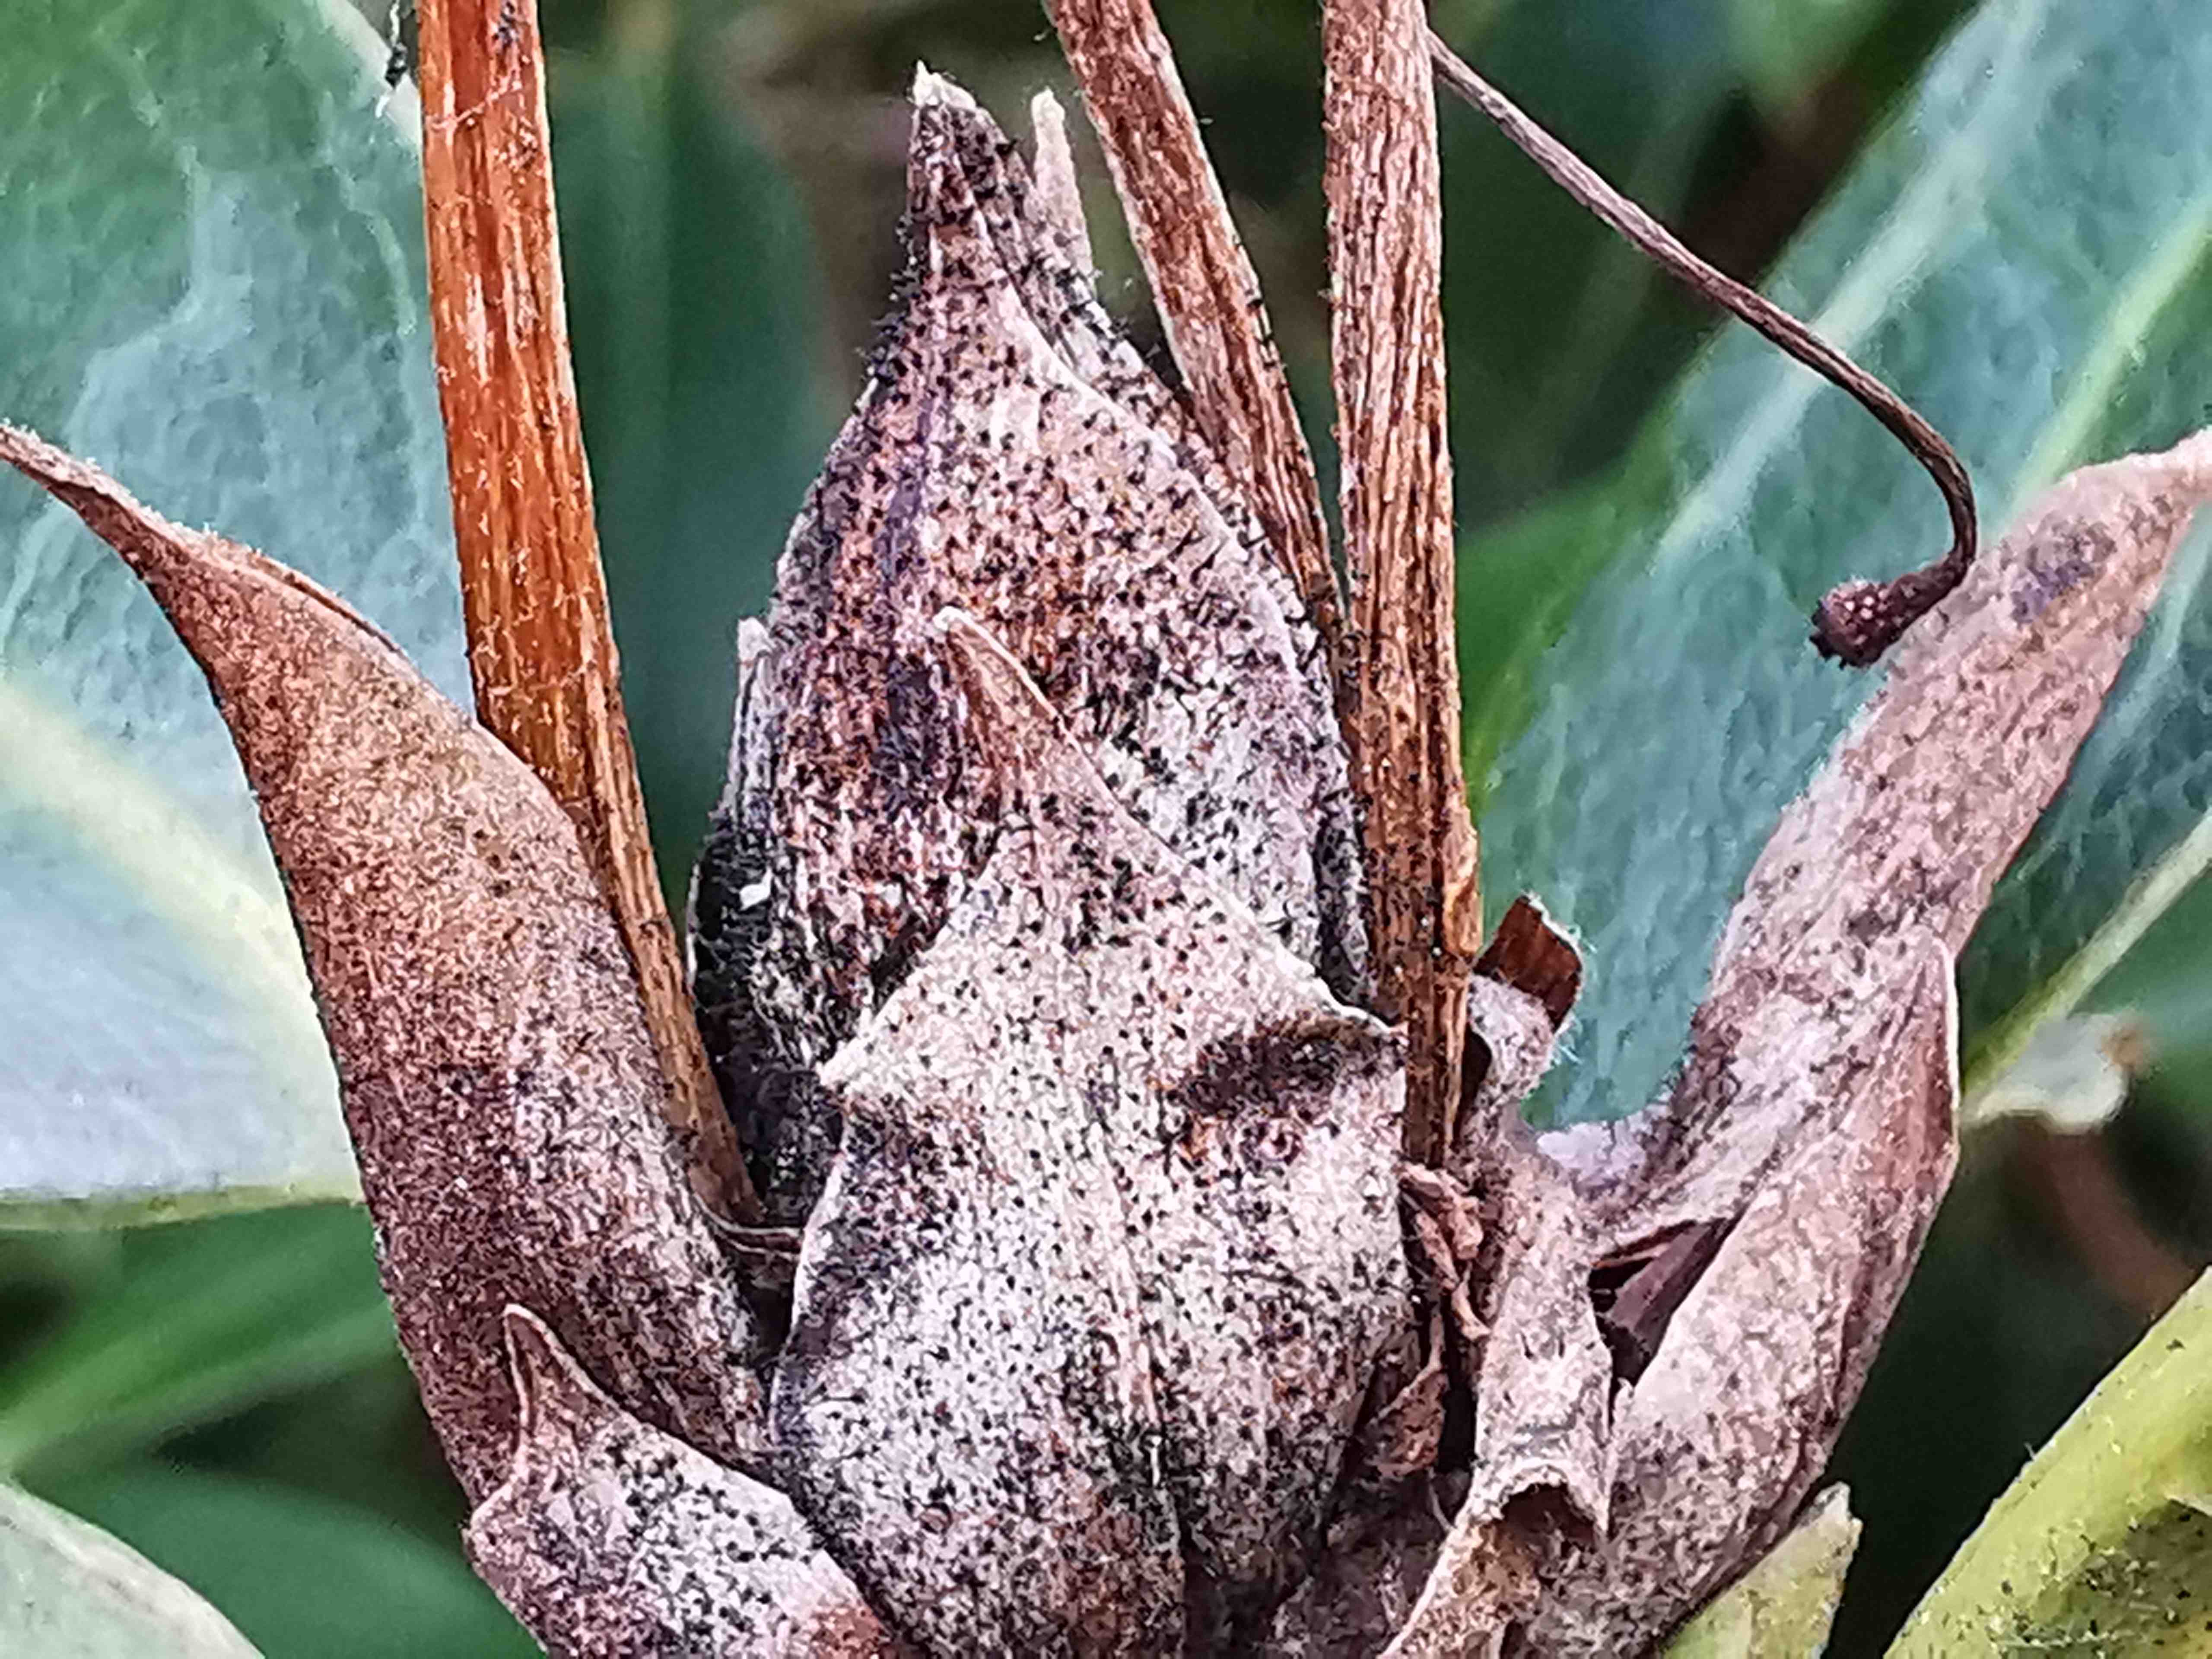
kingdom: Fungi
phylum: Ascomycota
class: Dothideomycetes
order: Pleosporales
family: Melanommataceae
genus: Seifertia
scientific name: Seifertia azaleae
